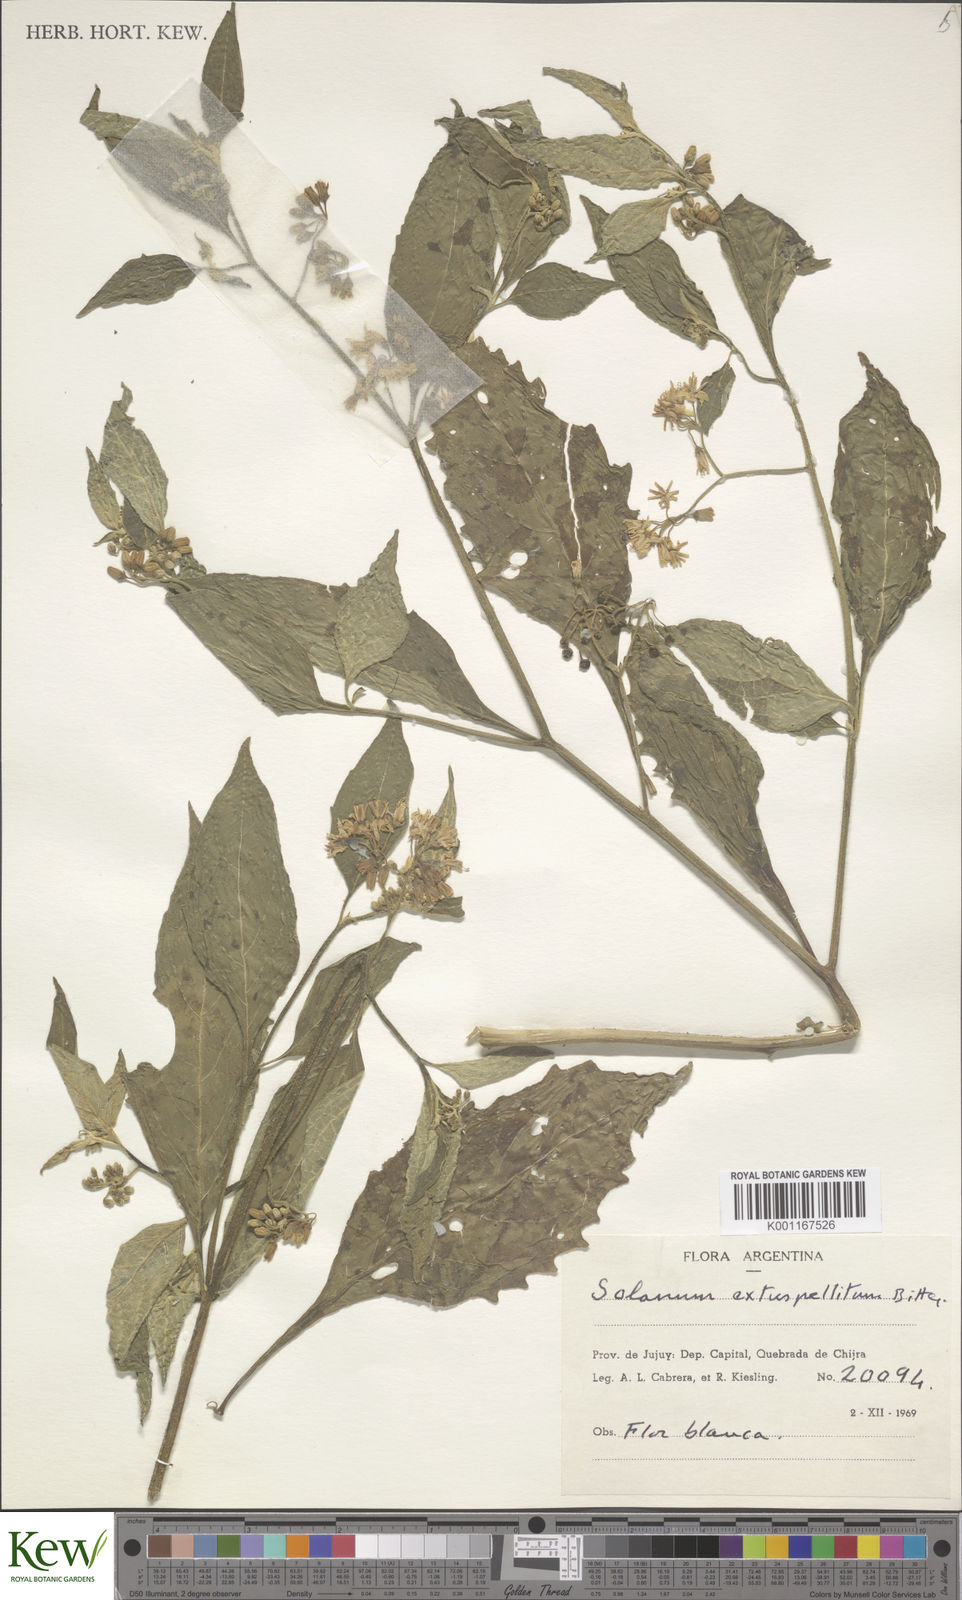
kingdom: Plantae
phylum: Tracheophyta
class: Magnoliopsida
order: Solanales
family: Solanaceae
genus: Solanum
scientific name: Solanum cochabambense
